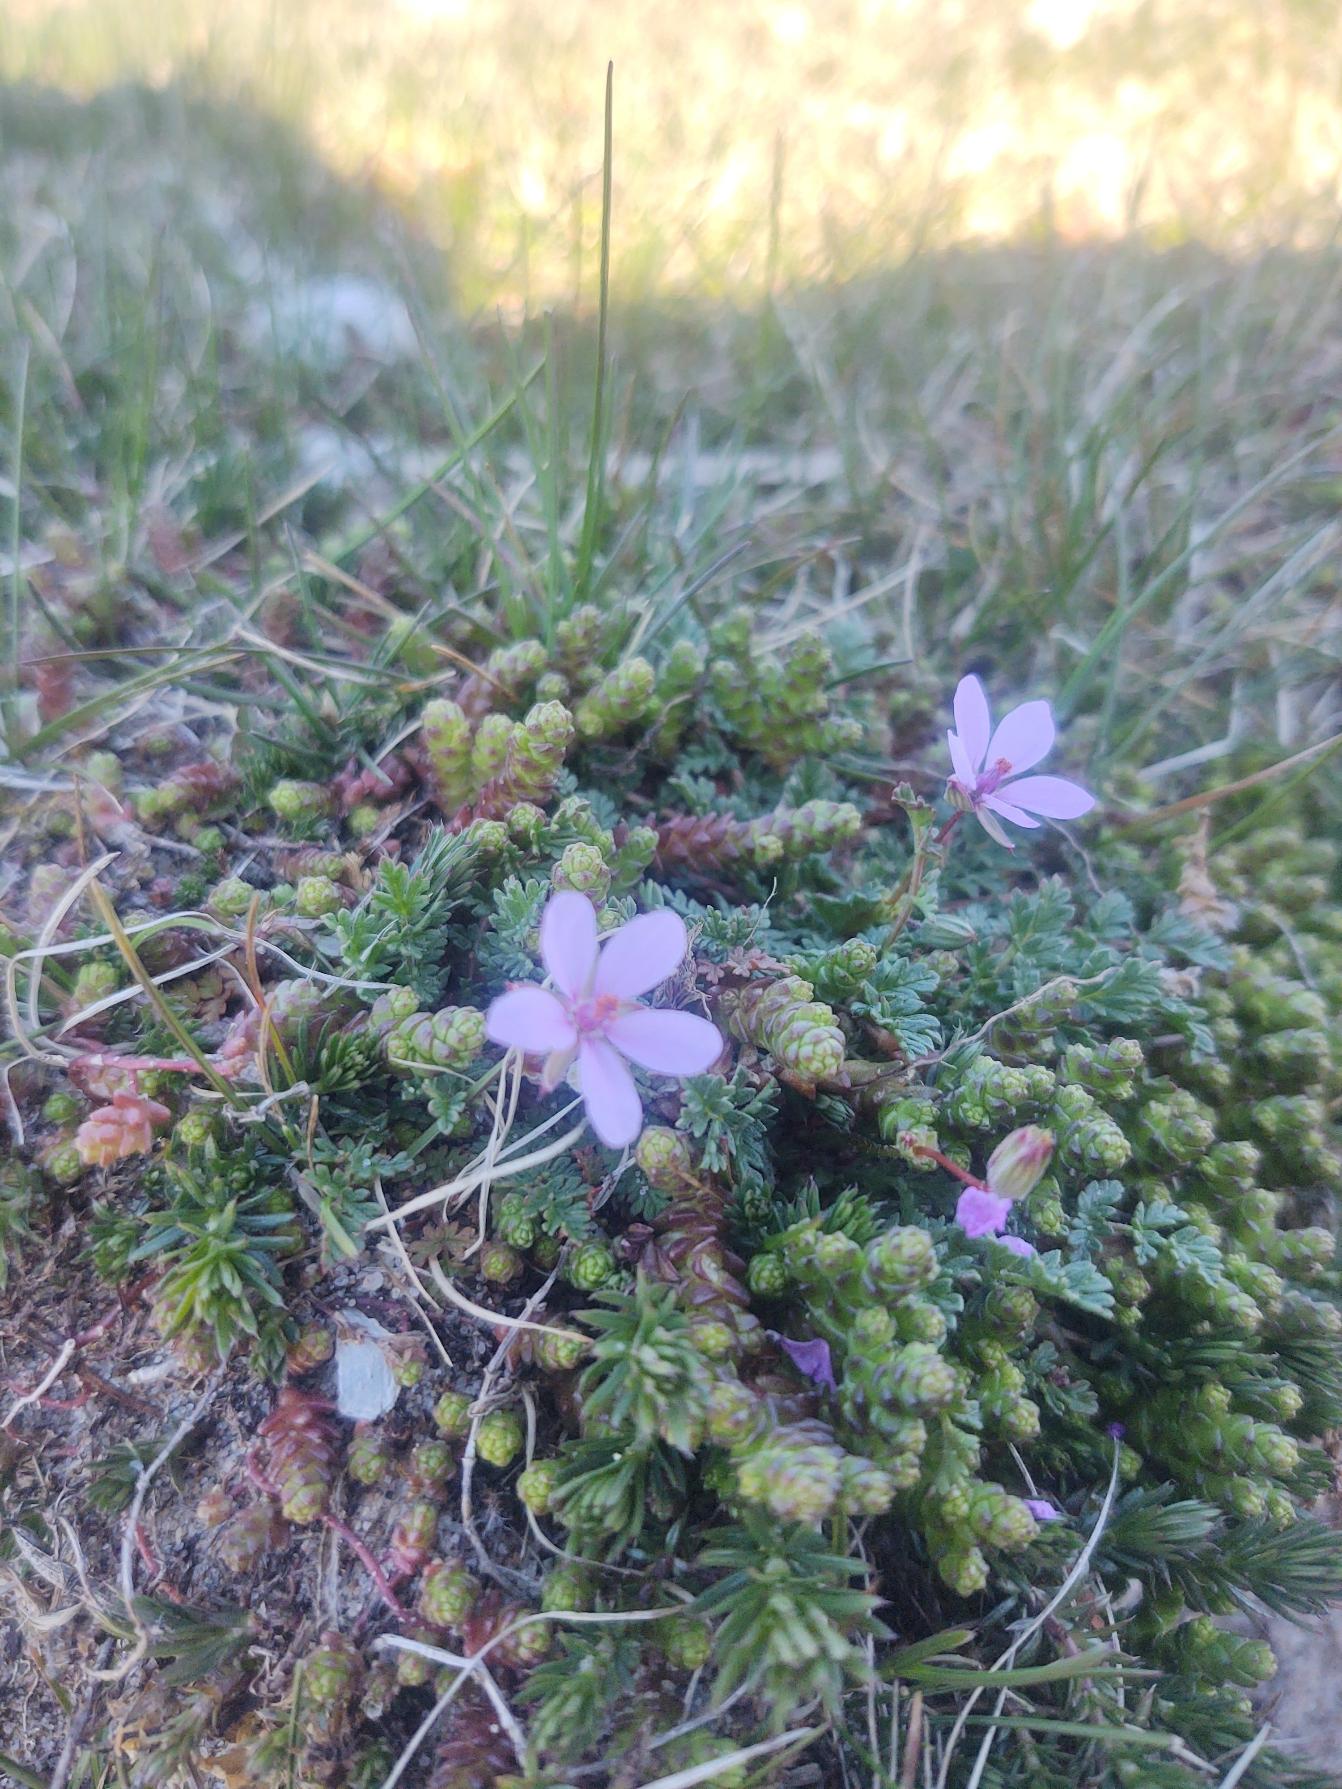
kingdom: Plantae
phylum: Tracheophyta
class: Magnoliopsida
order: Geraniales
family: Geraniaceae
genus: Erodium
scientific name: Erodium cicutarium
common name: Hejrenæb
